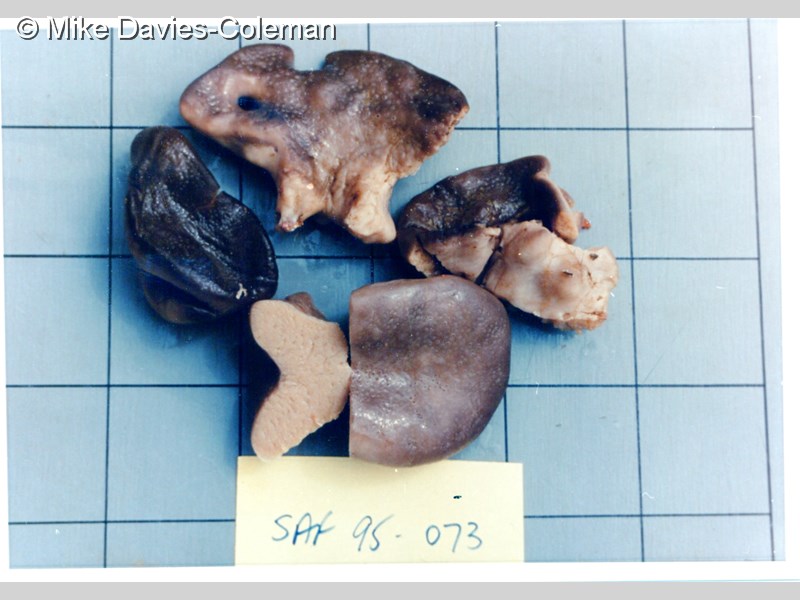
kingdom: Animalia
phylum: Porifera
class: Demospongiae
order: Tetractinellida
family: Geodiidae
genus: Erylus
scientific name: Erylus
